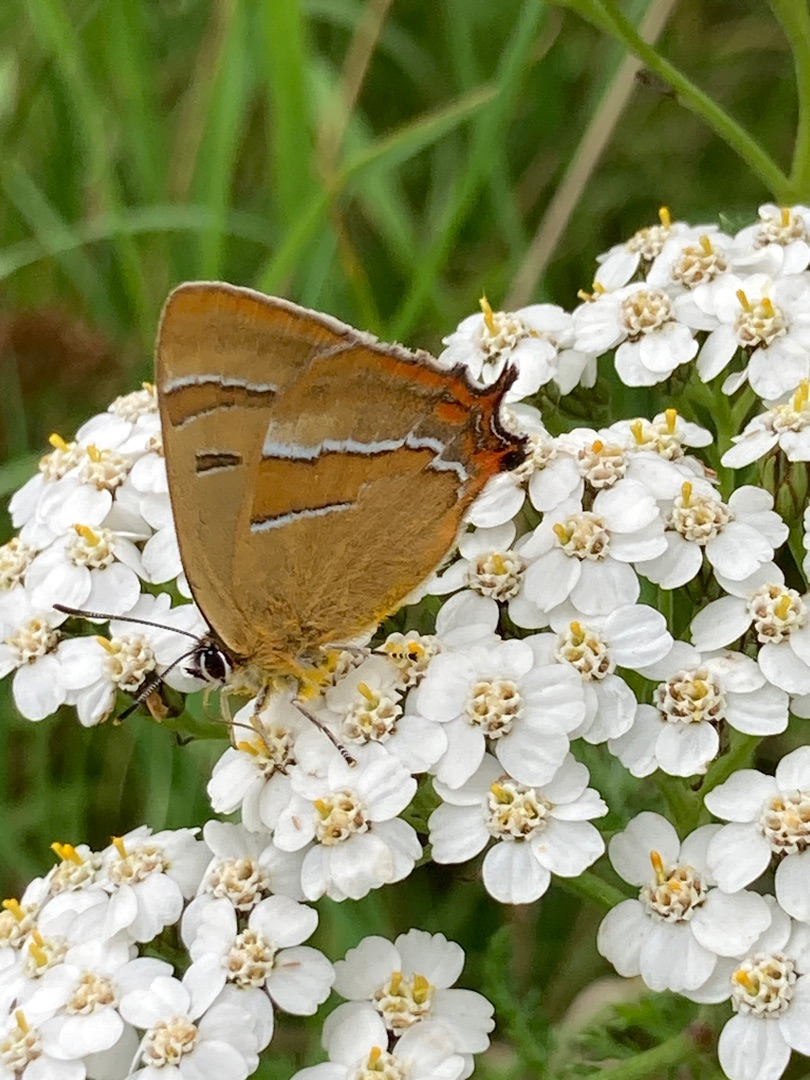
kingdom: Animalia
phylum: Arthropoda
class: Insecta
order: Lepidoptera
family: Lycaenidae
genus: Thecla
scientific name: Thecla betulae
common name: Guldhale
